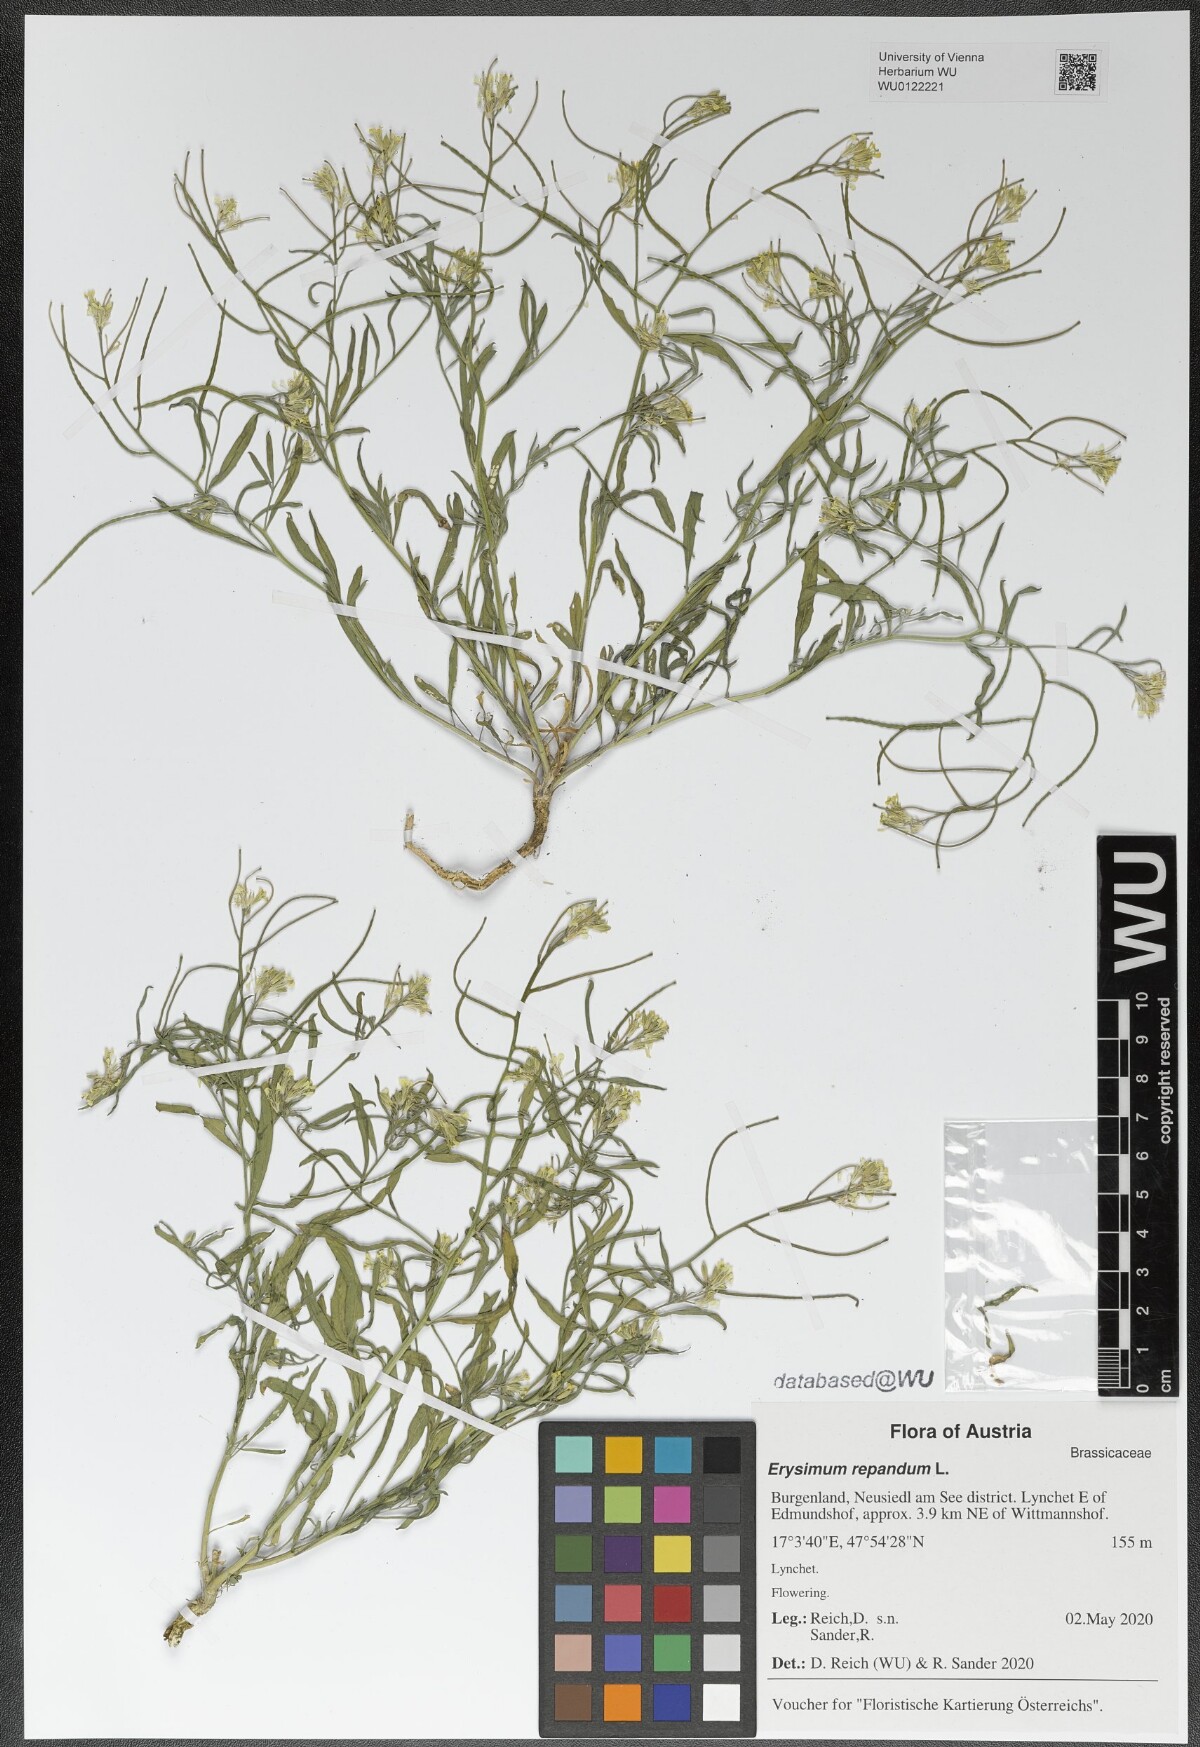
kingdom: Plantae
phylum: Tracheophyta
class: Magnoliopsida
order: Brassicales
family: Brassicaceae
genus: Erysimum
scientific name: Erysimum repandum
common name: Spreading wallflower
